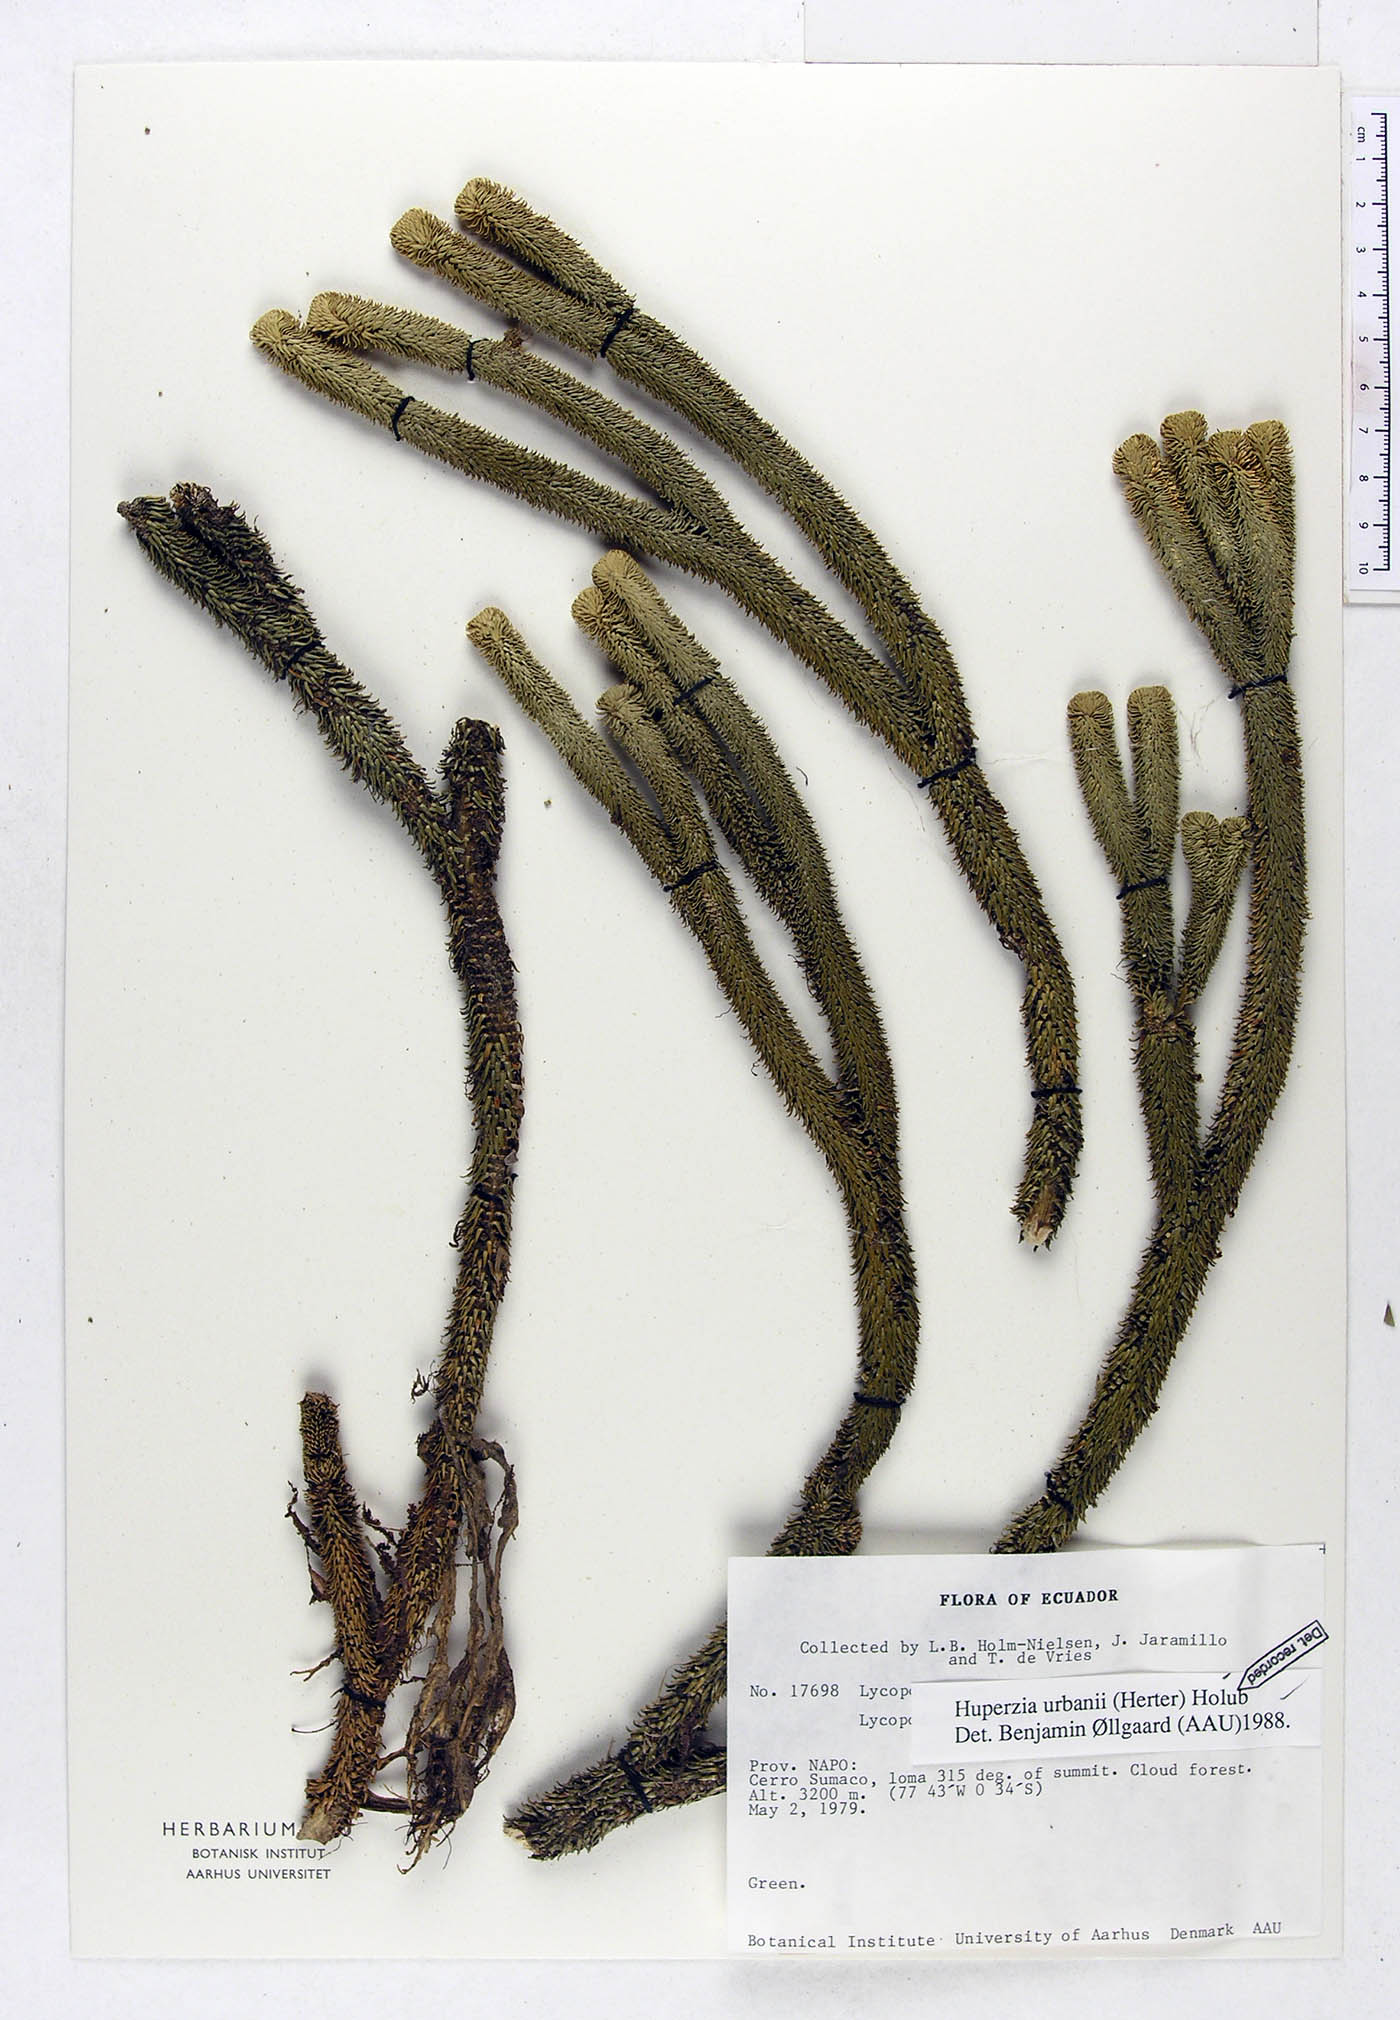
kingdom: Plantae
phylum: Tracheophyta
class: Lycopodiopsida
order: Lycopodiales
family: Lycopodiaceae
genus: Phlegmariurus
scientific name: Phlegmariurus urbanii
